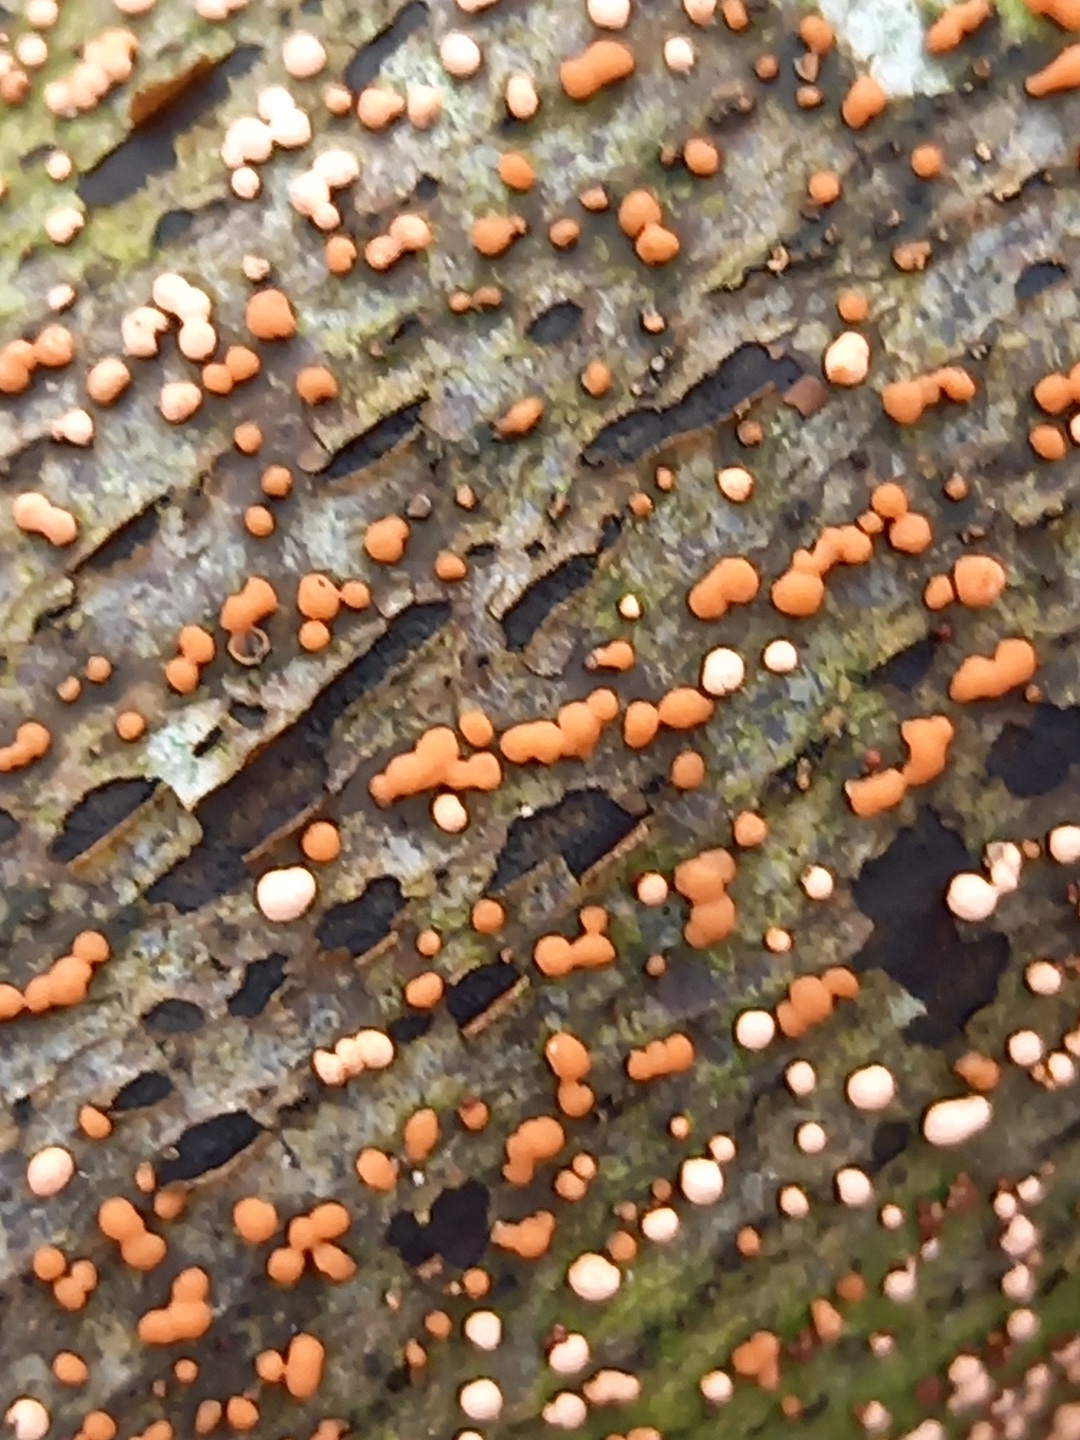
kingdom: Fungi
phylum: Ascomycota
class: Sordariomycetes
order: Hypocreales
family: Nectriaceae
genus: Nectria
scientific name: Nectria
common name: cinnobersvamp
